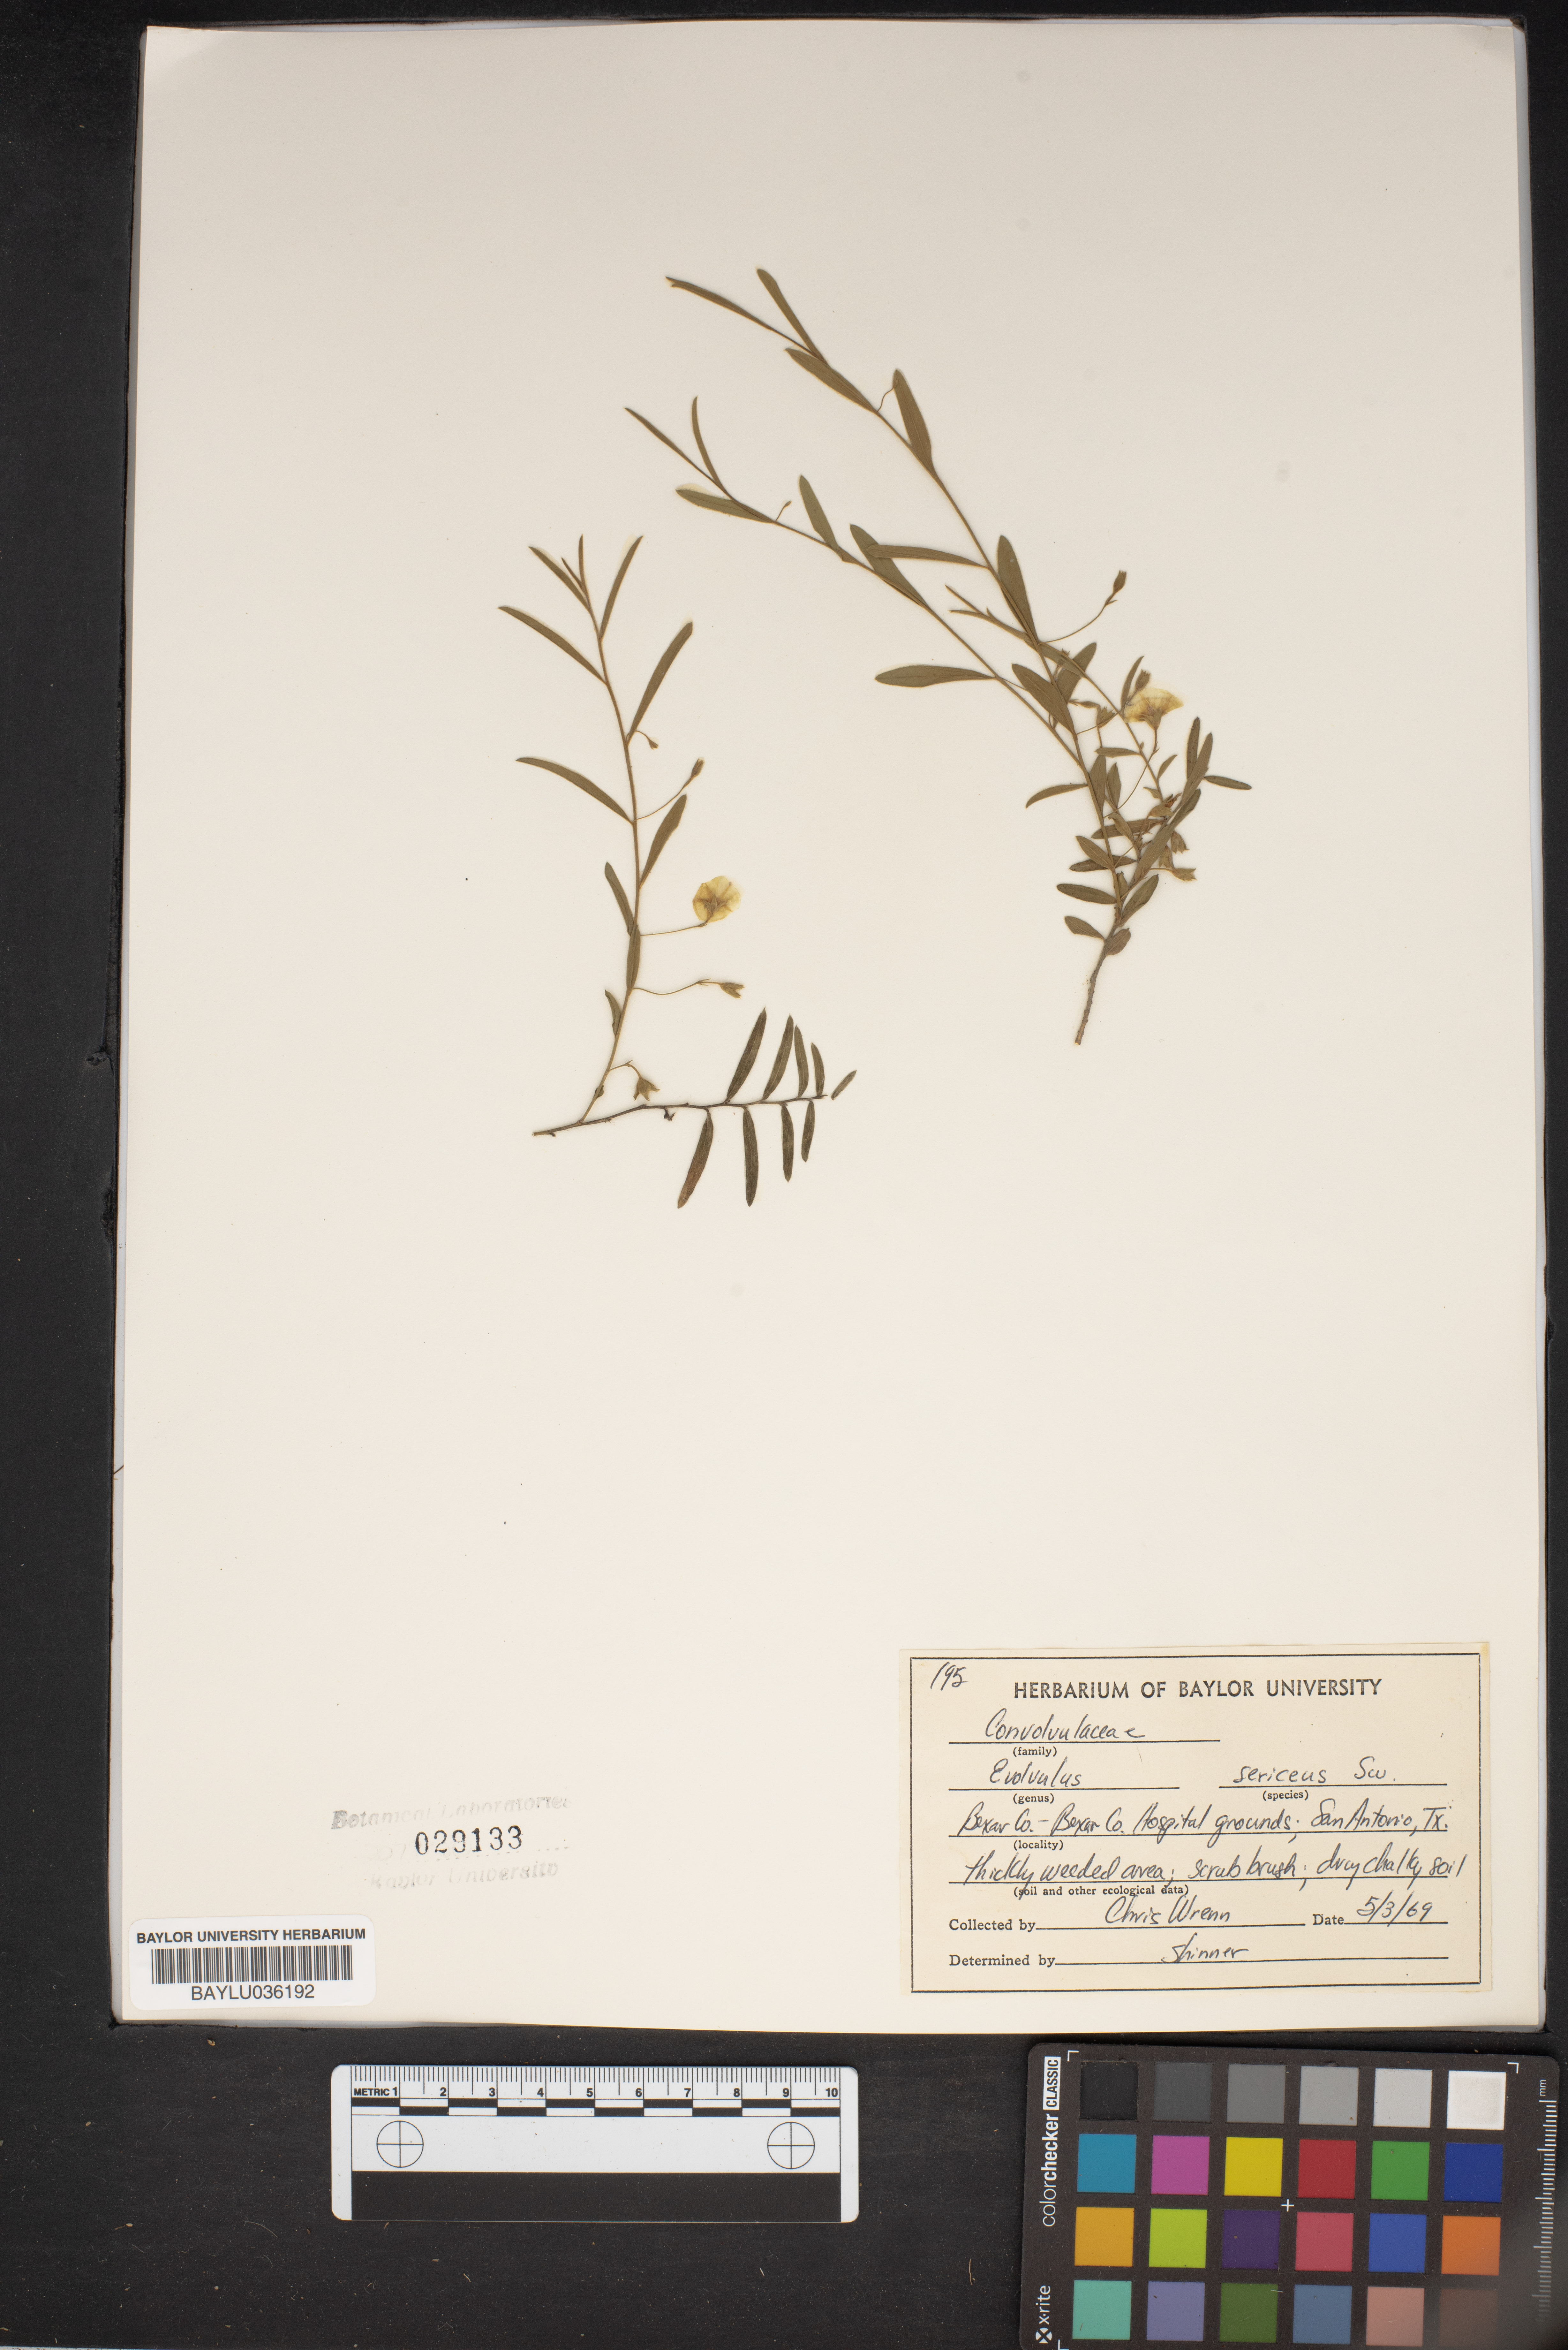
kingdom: Plantae
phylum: Tracheophyta
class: Magnoliopsida
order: Solanales
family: Convolvulaceae
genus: Evolvulus
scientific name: Evolvulus sericeus
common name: Blue dots
